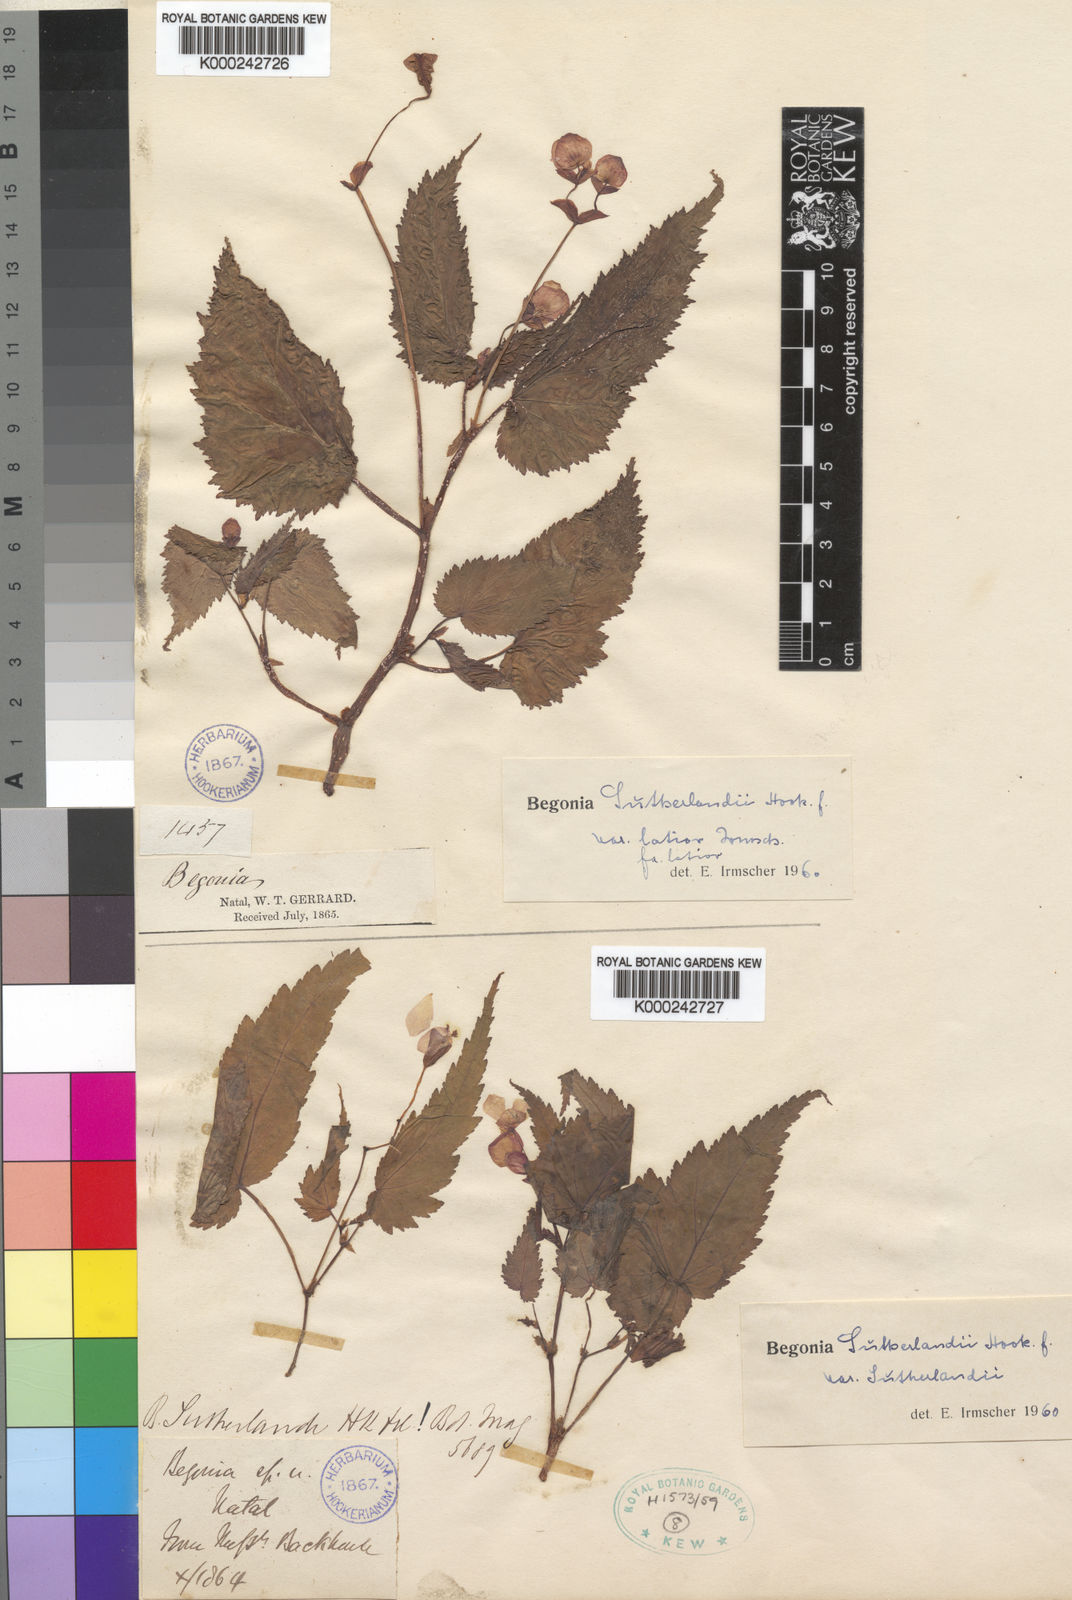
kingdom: Plantae
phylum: Tracheophyta
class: Magnoliopsida
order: Cucurbitales
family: Begoniaceae
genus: Begonia
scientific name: Begonia sutherlandii
